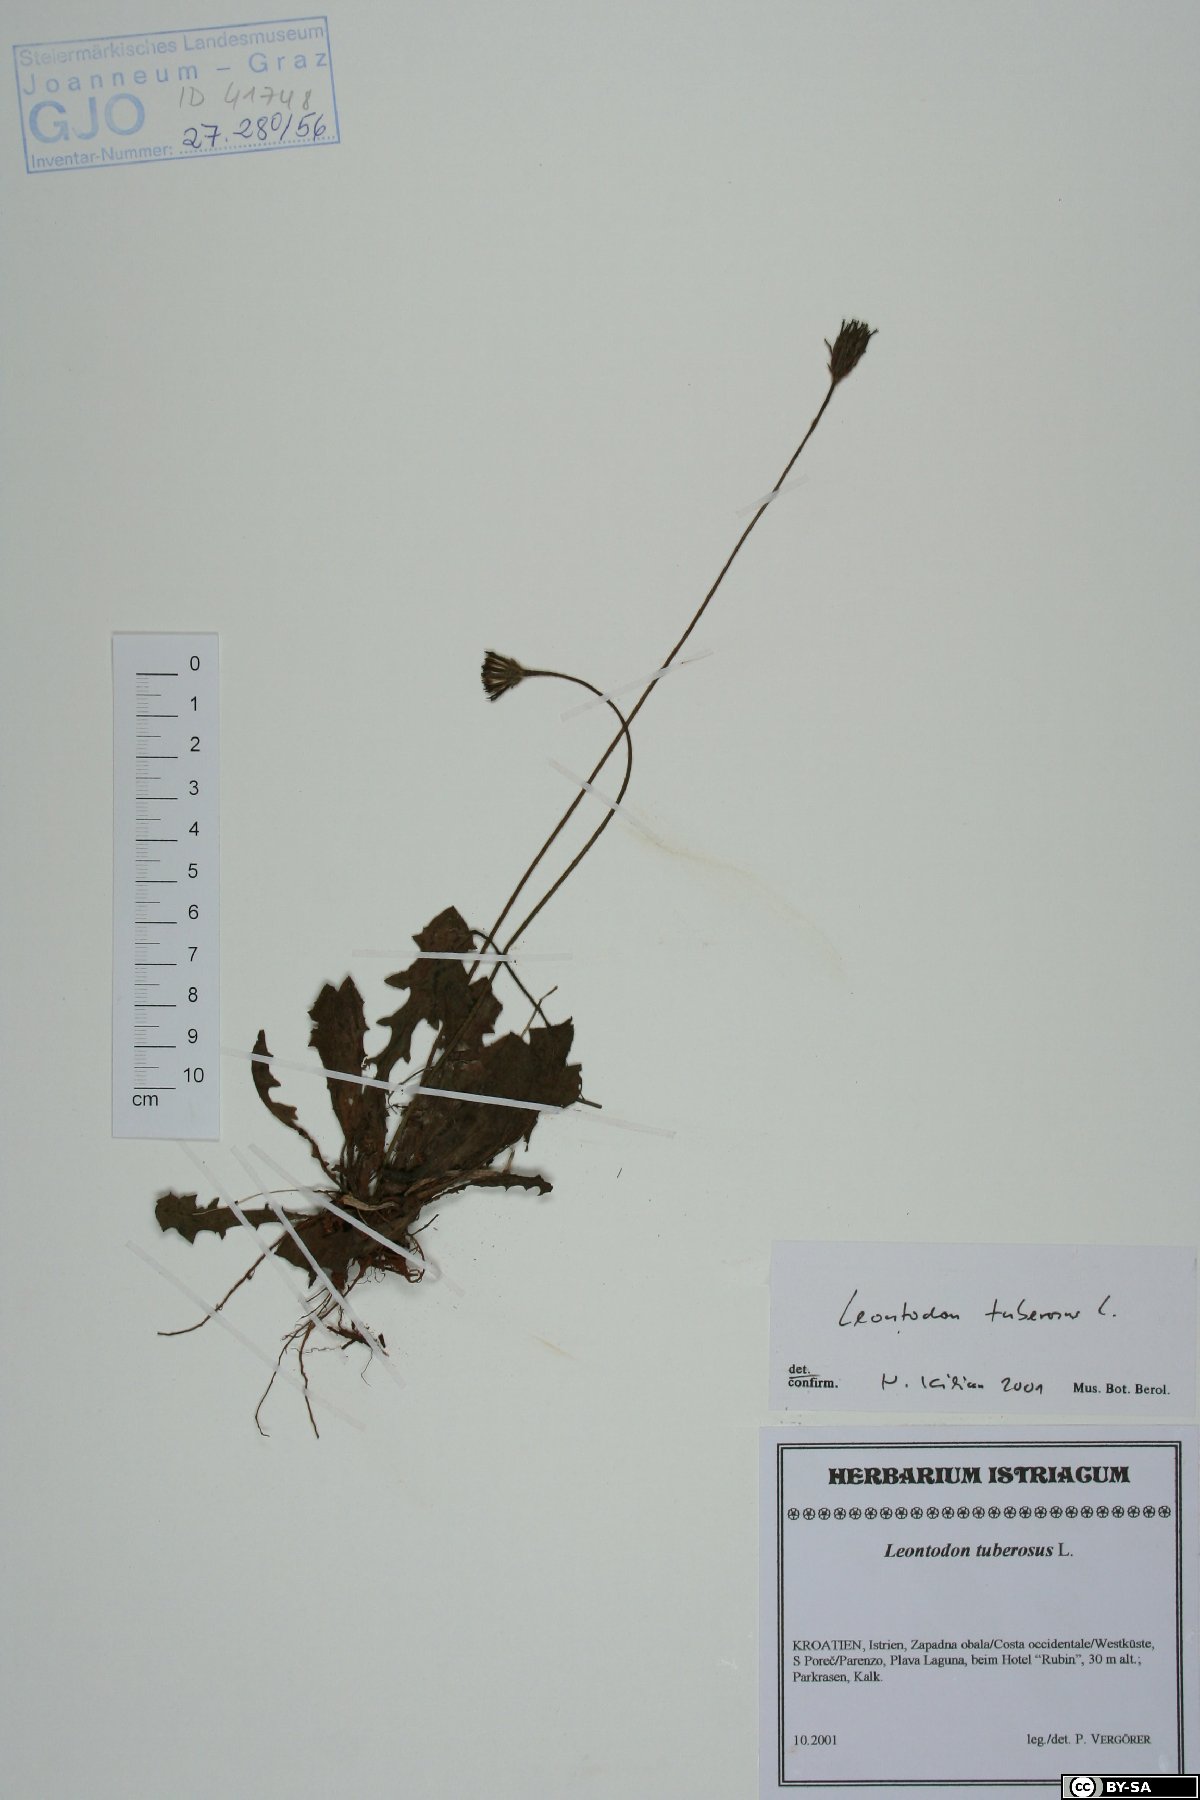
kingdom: Plantae
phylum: Tracheophyta
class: Magnoliopsida
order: Asterales
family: Asteraceae
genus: Thrincia
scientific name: Thrincia tuberosa
